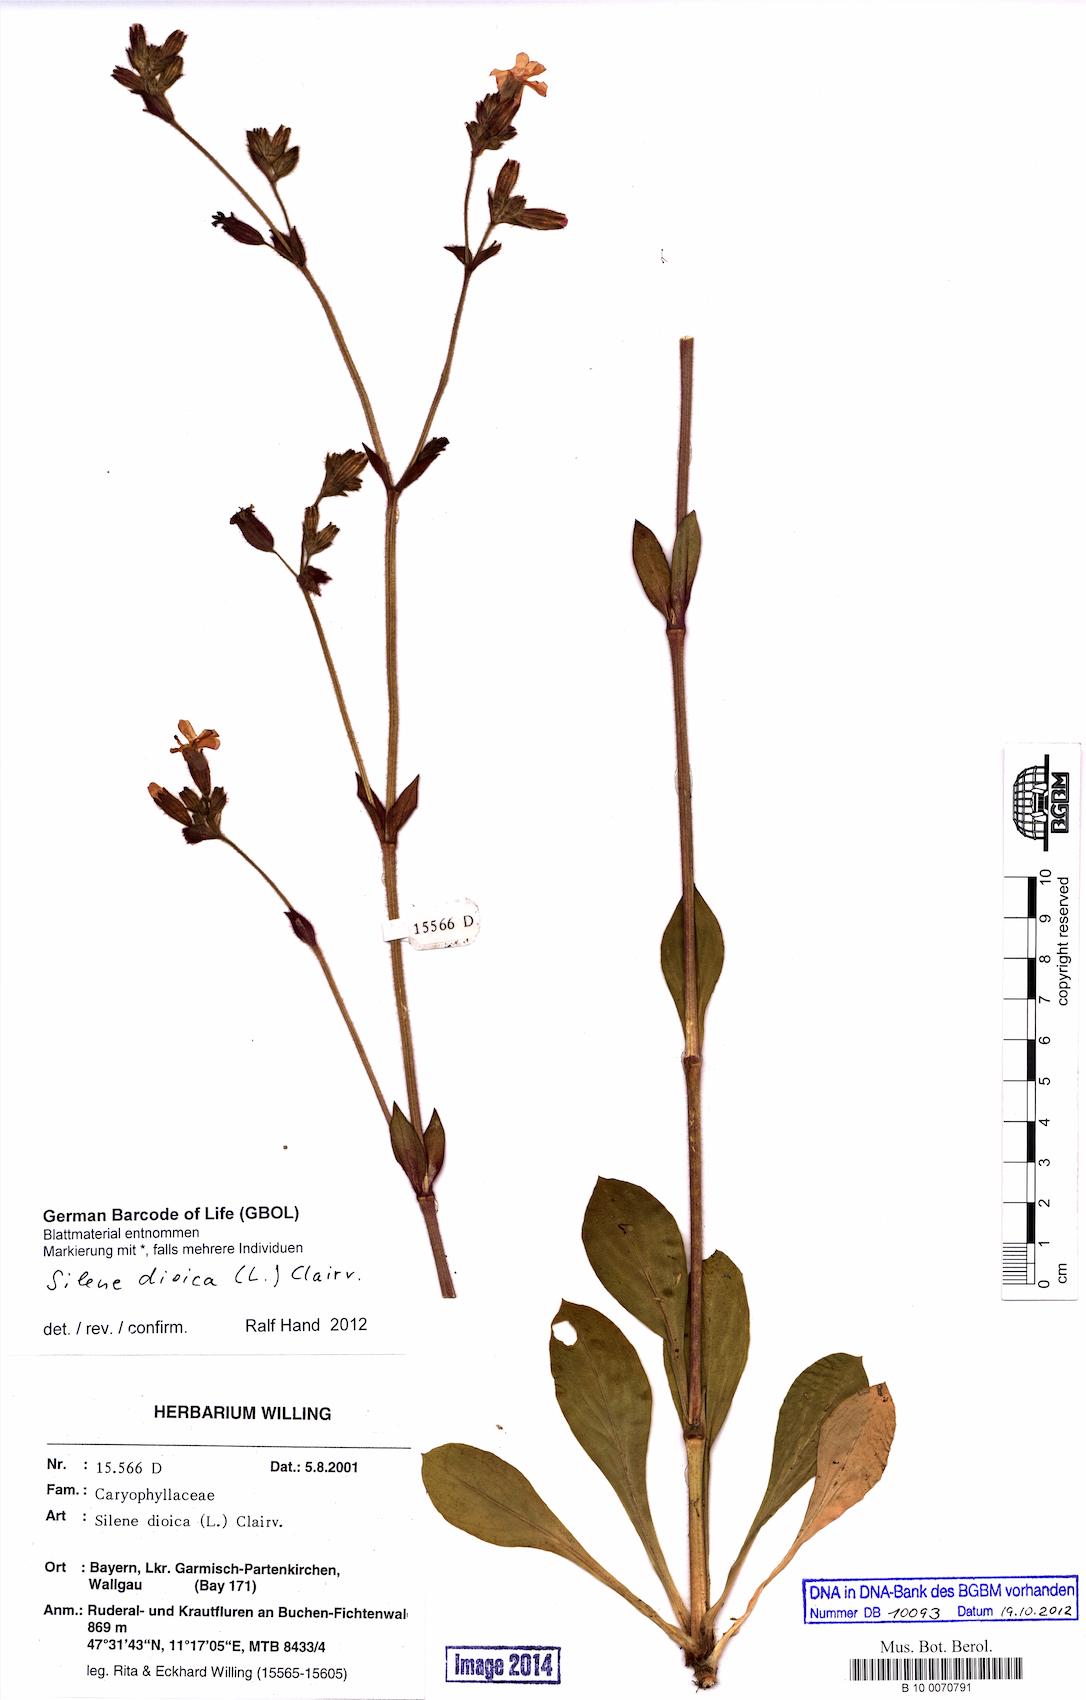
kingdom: Plantae
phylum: Tracheophyta
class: Magnoliopsida
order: Caryophyllales
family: Caryophyllaceae
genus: Silene
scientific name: Silene dioica
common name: Red campion
